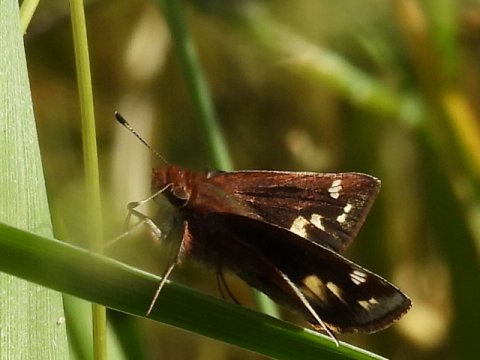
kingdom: Animalia
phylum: Arthropoda
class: Insecta
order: Lepidoptera
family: Hesperiidae
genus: Lon
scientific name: Lon zabulon
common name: Zabulon Skipper
